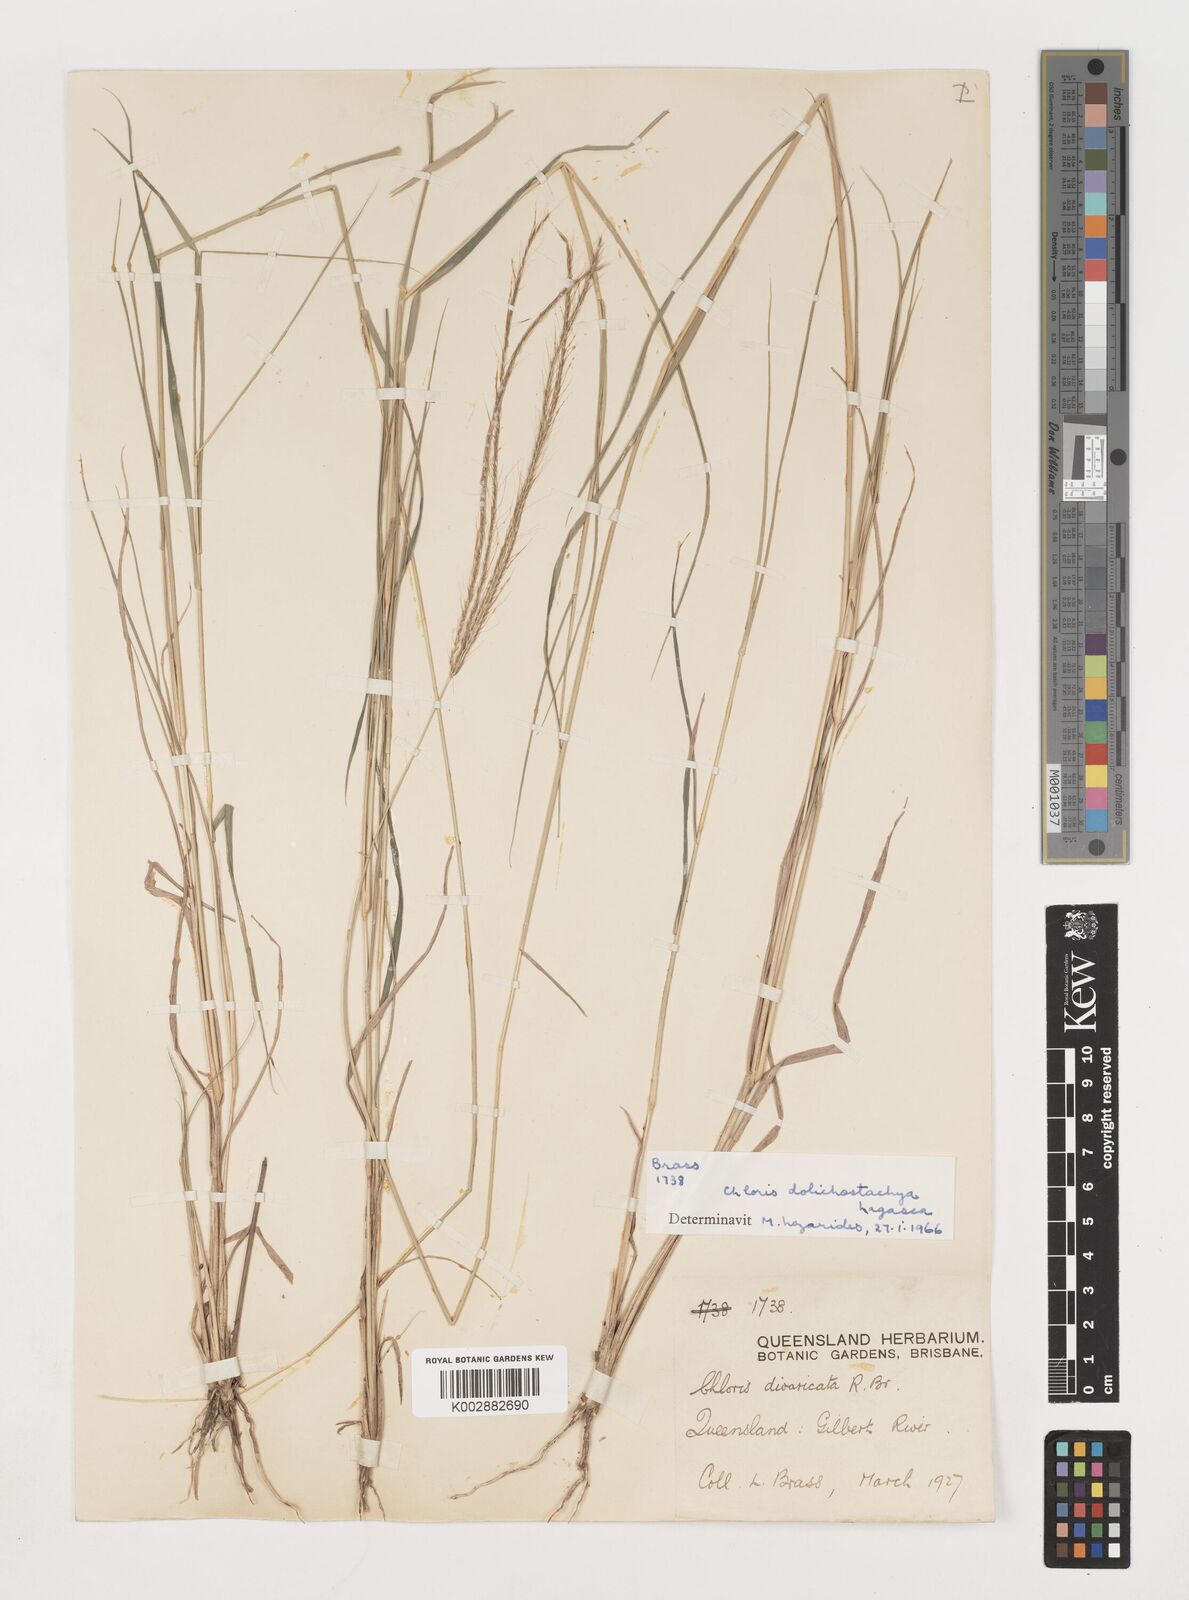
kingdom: Plantae
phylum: Tracheophyta
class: Liliopsida
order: Poales
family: Poaceae
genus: Chloris
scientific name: Chloris divaricata
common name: Spreading windmill grass
